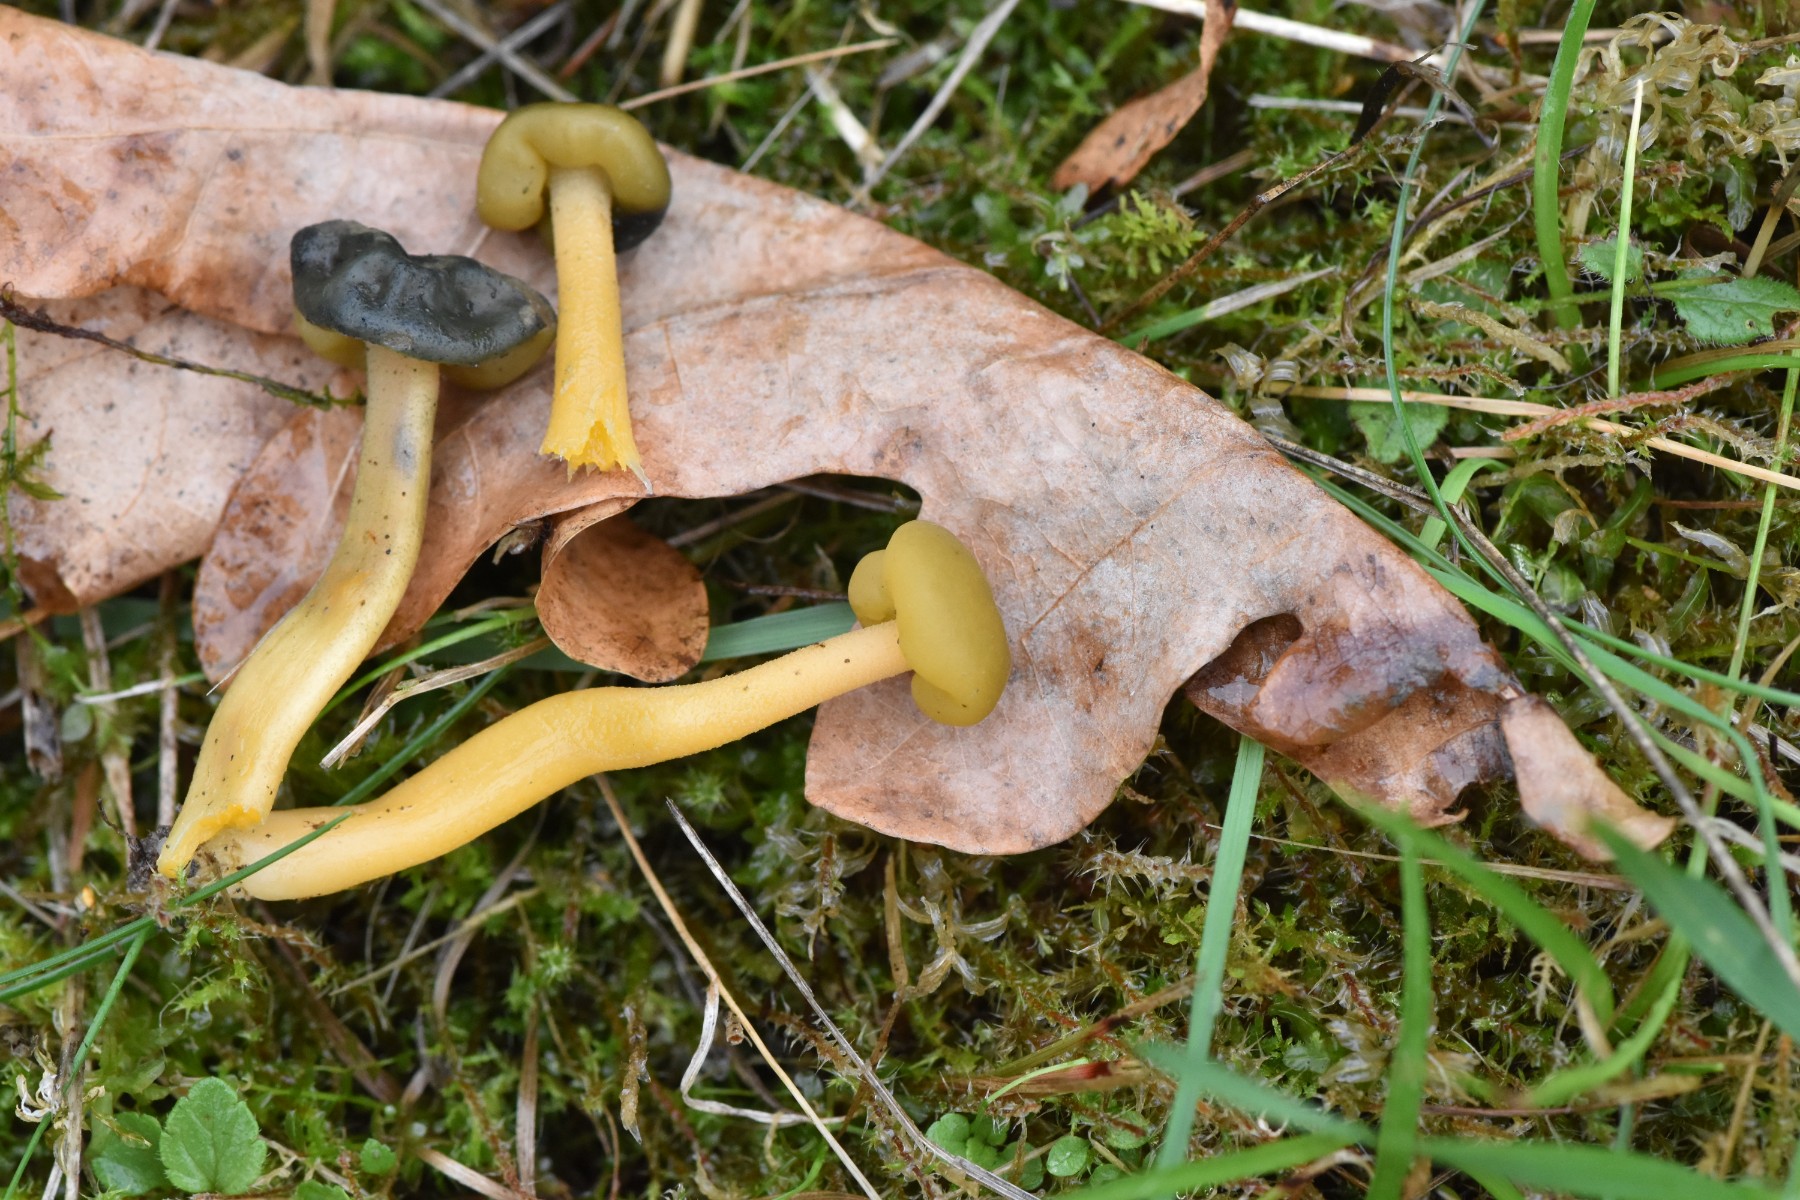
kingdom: Fungi
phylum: Ascomycota
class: Leotiomycetes
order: Leotiales
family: Leotiaceae
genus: Leotia
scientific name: Leotia lubrica
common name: ravsvamp
